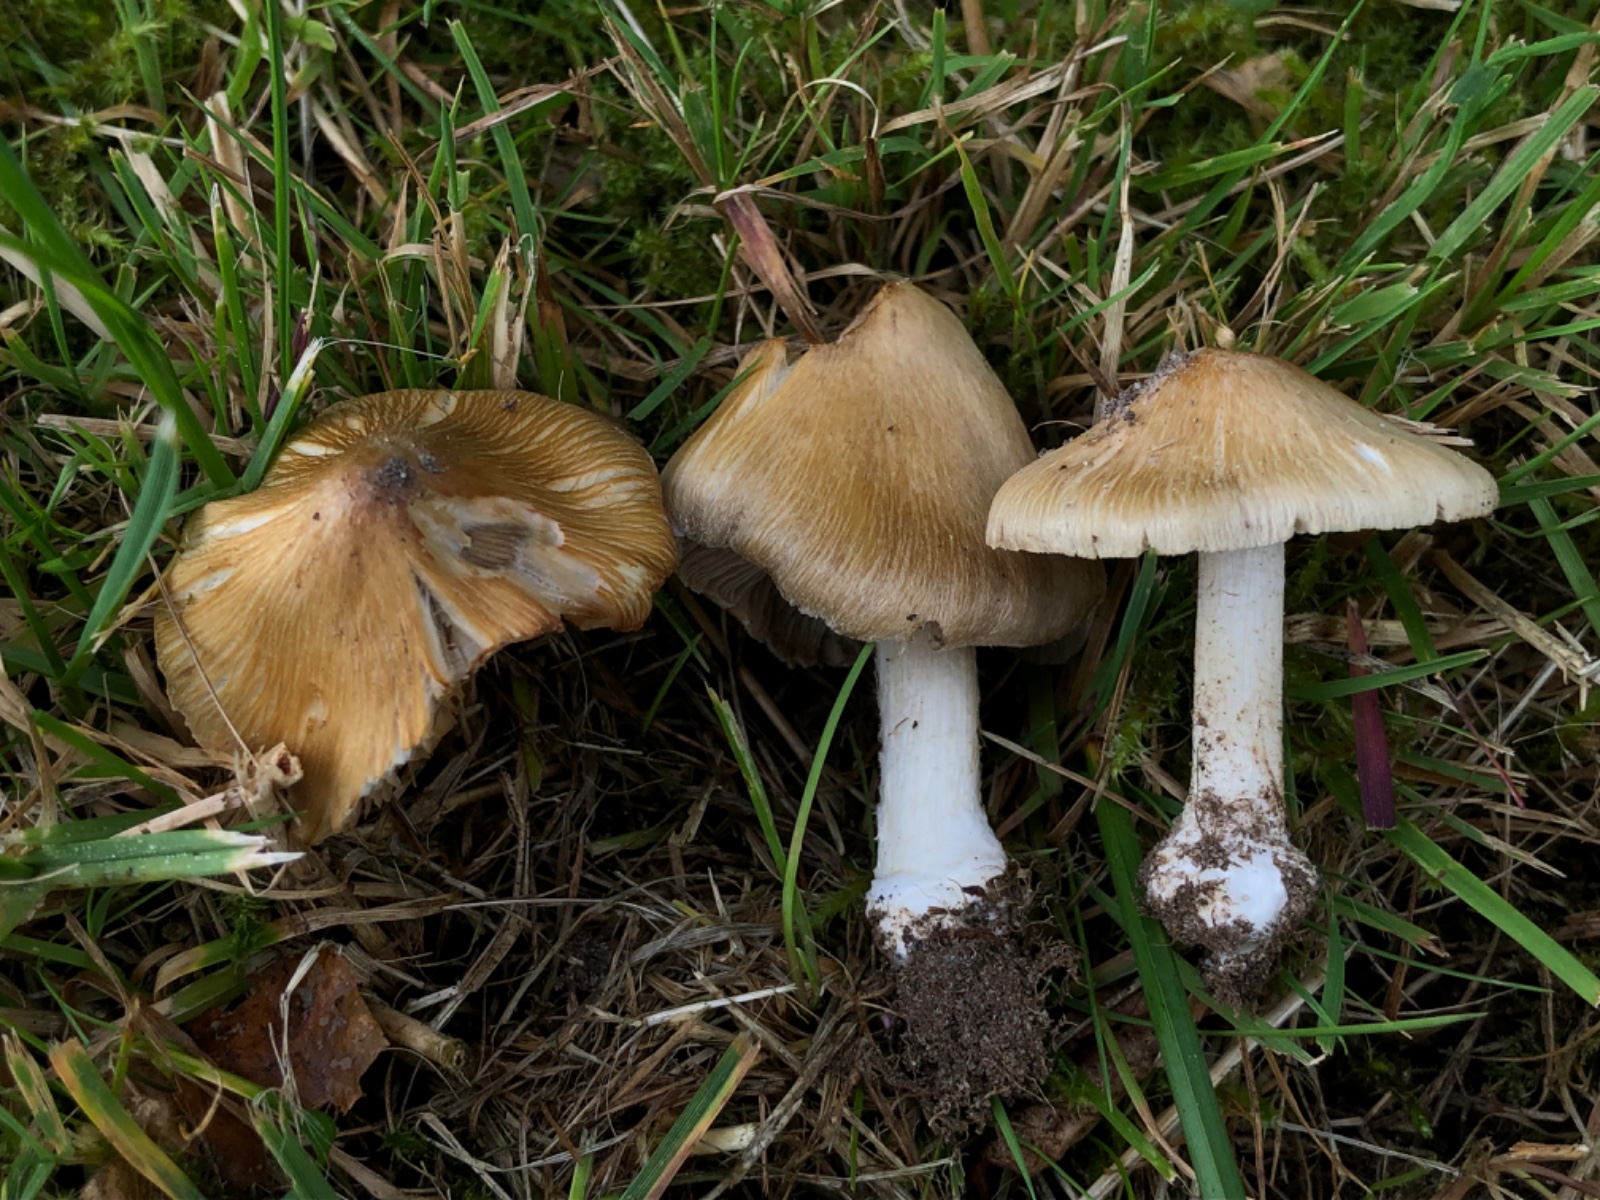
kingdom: Fungi
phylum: Basidiomycota
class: Agaricomycetes
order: Agaricales
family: Inocybaceae
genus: Inosperma
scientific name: Inosperma
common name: strågul trævlhat
